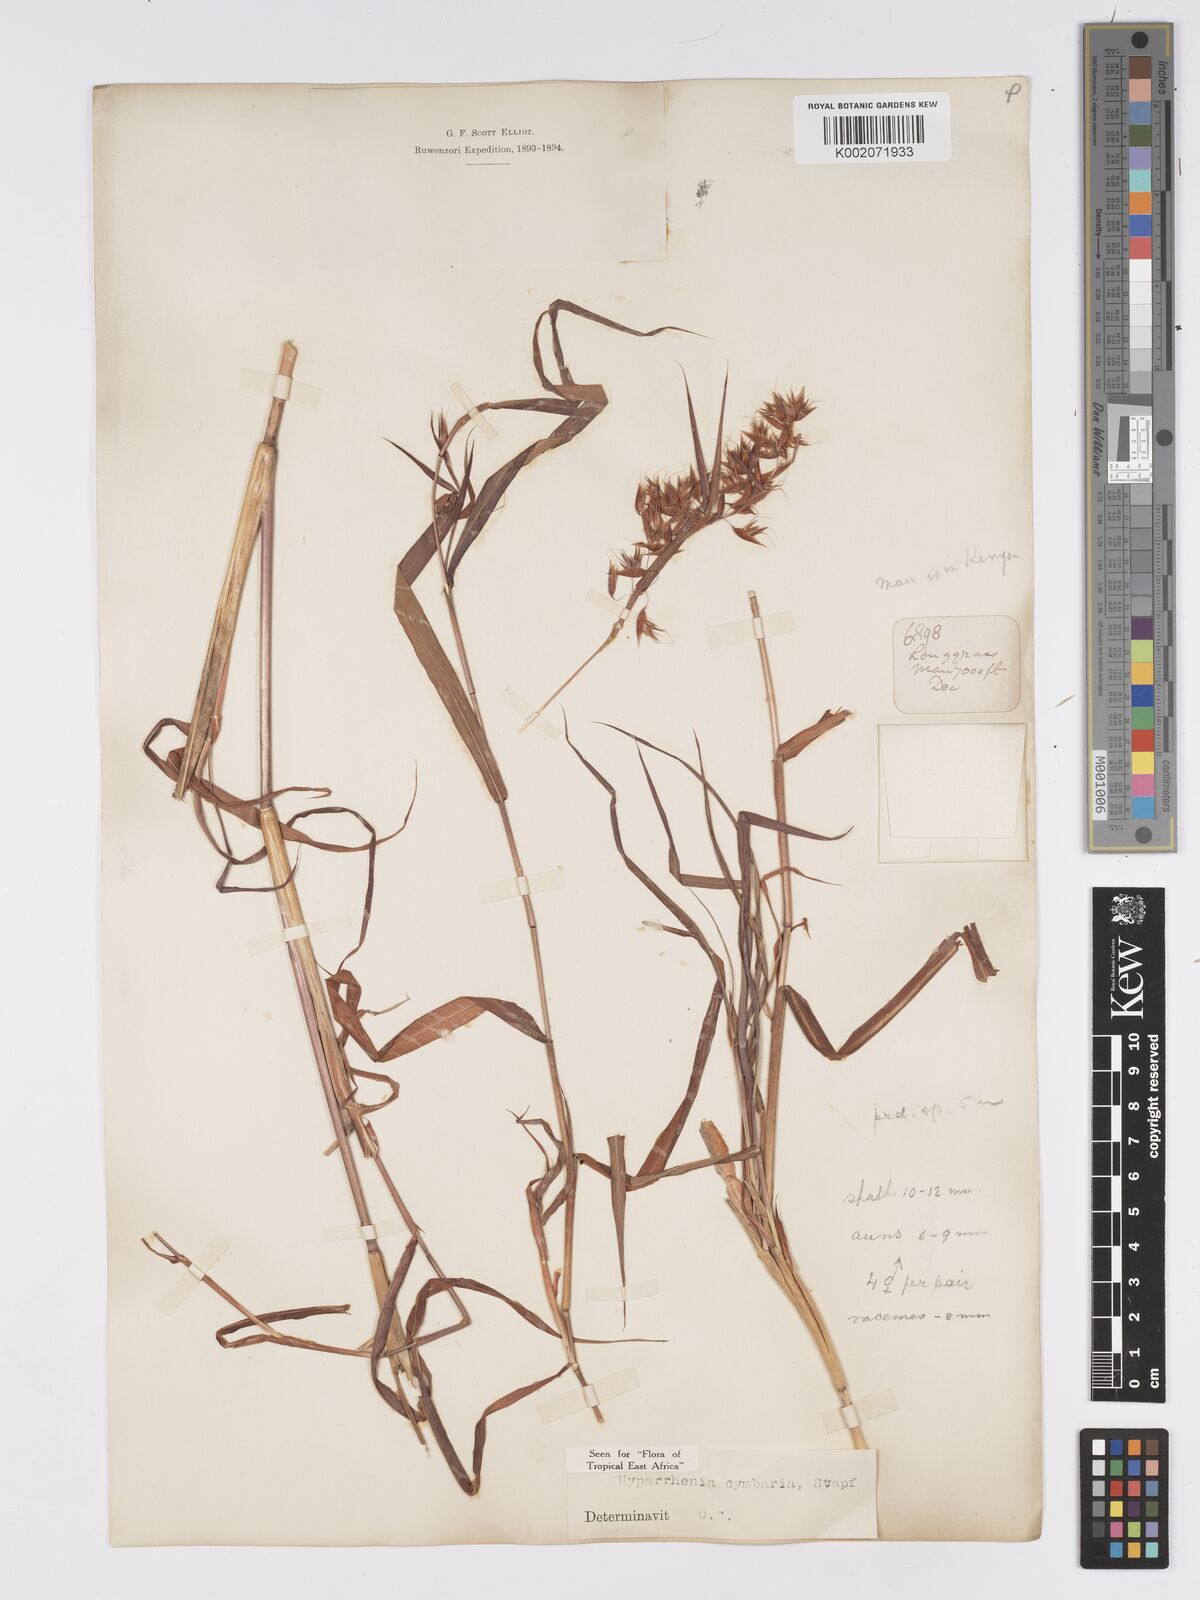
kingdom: Plantae
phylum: Tracheophyta
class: Liliopsida
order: Poales
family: Poaceae
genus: Hyparrhenia
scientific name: Hyparrhenia cymbaria
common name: Boat thatching grass
